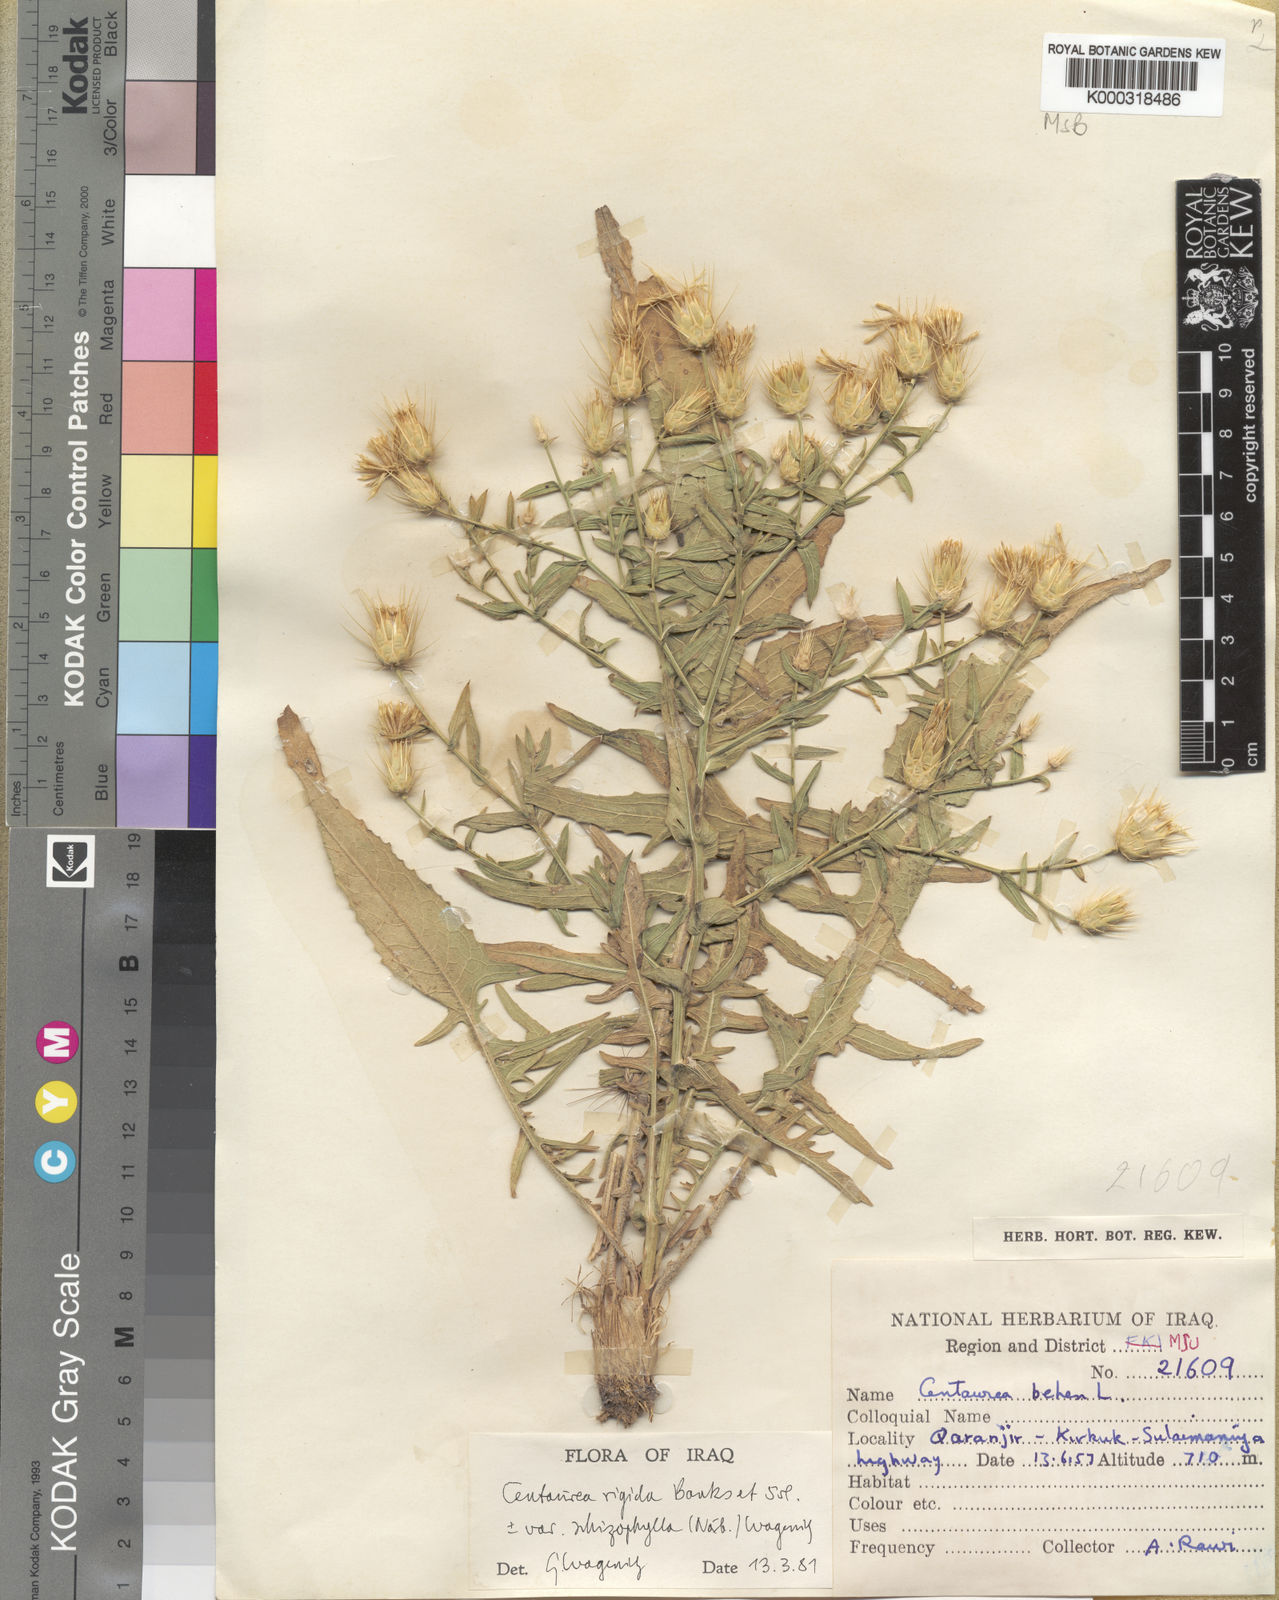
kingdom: Plantae
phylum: Tracheophyta
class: Magnoliopsida
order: Asterales
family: Asteraceae
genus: Centaurea
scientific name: Centaurea rigida
